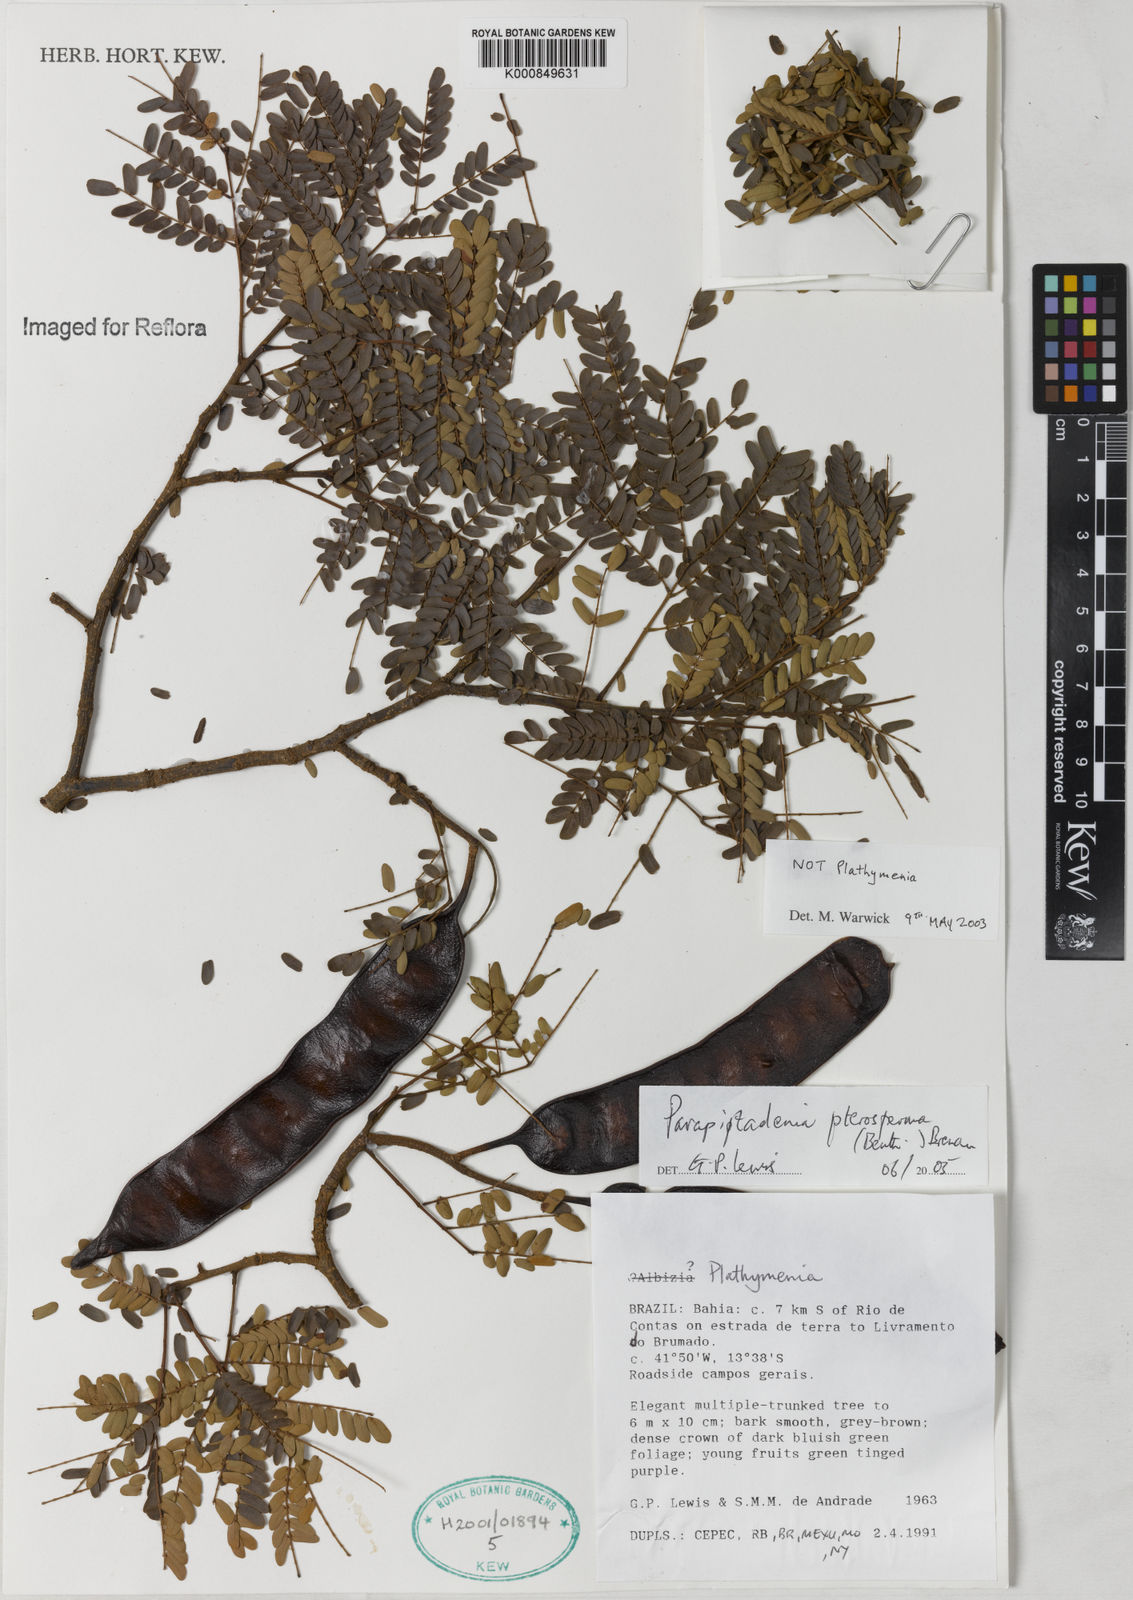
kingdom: Plantae
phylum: Tracheophyta
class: Magnoliopsida
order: Fabales
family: Fabaceae
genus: Parapiptadenia
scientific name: Parapiptadenia pterosperma
